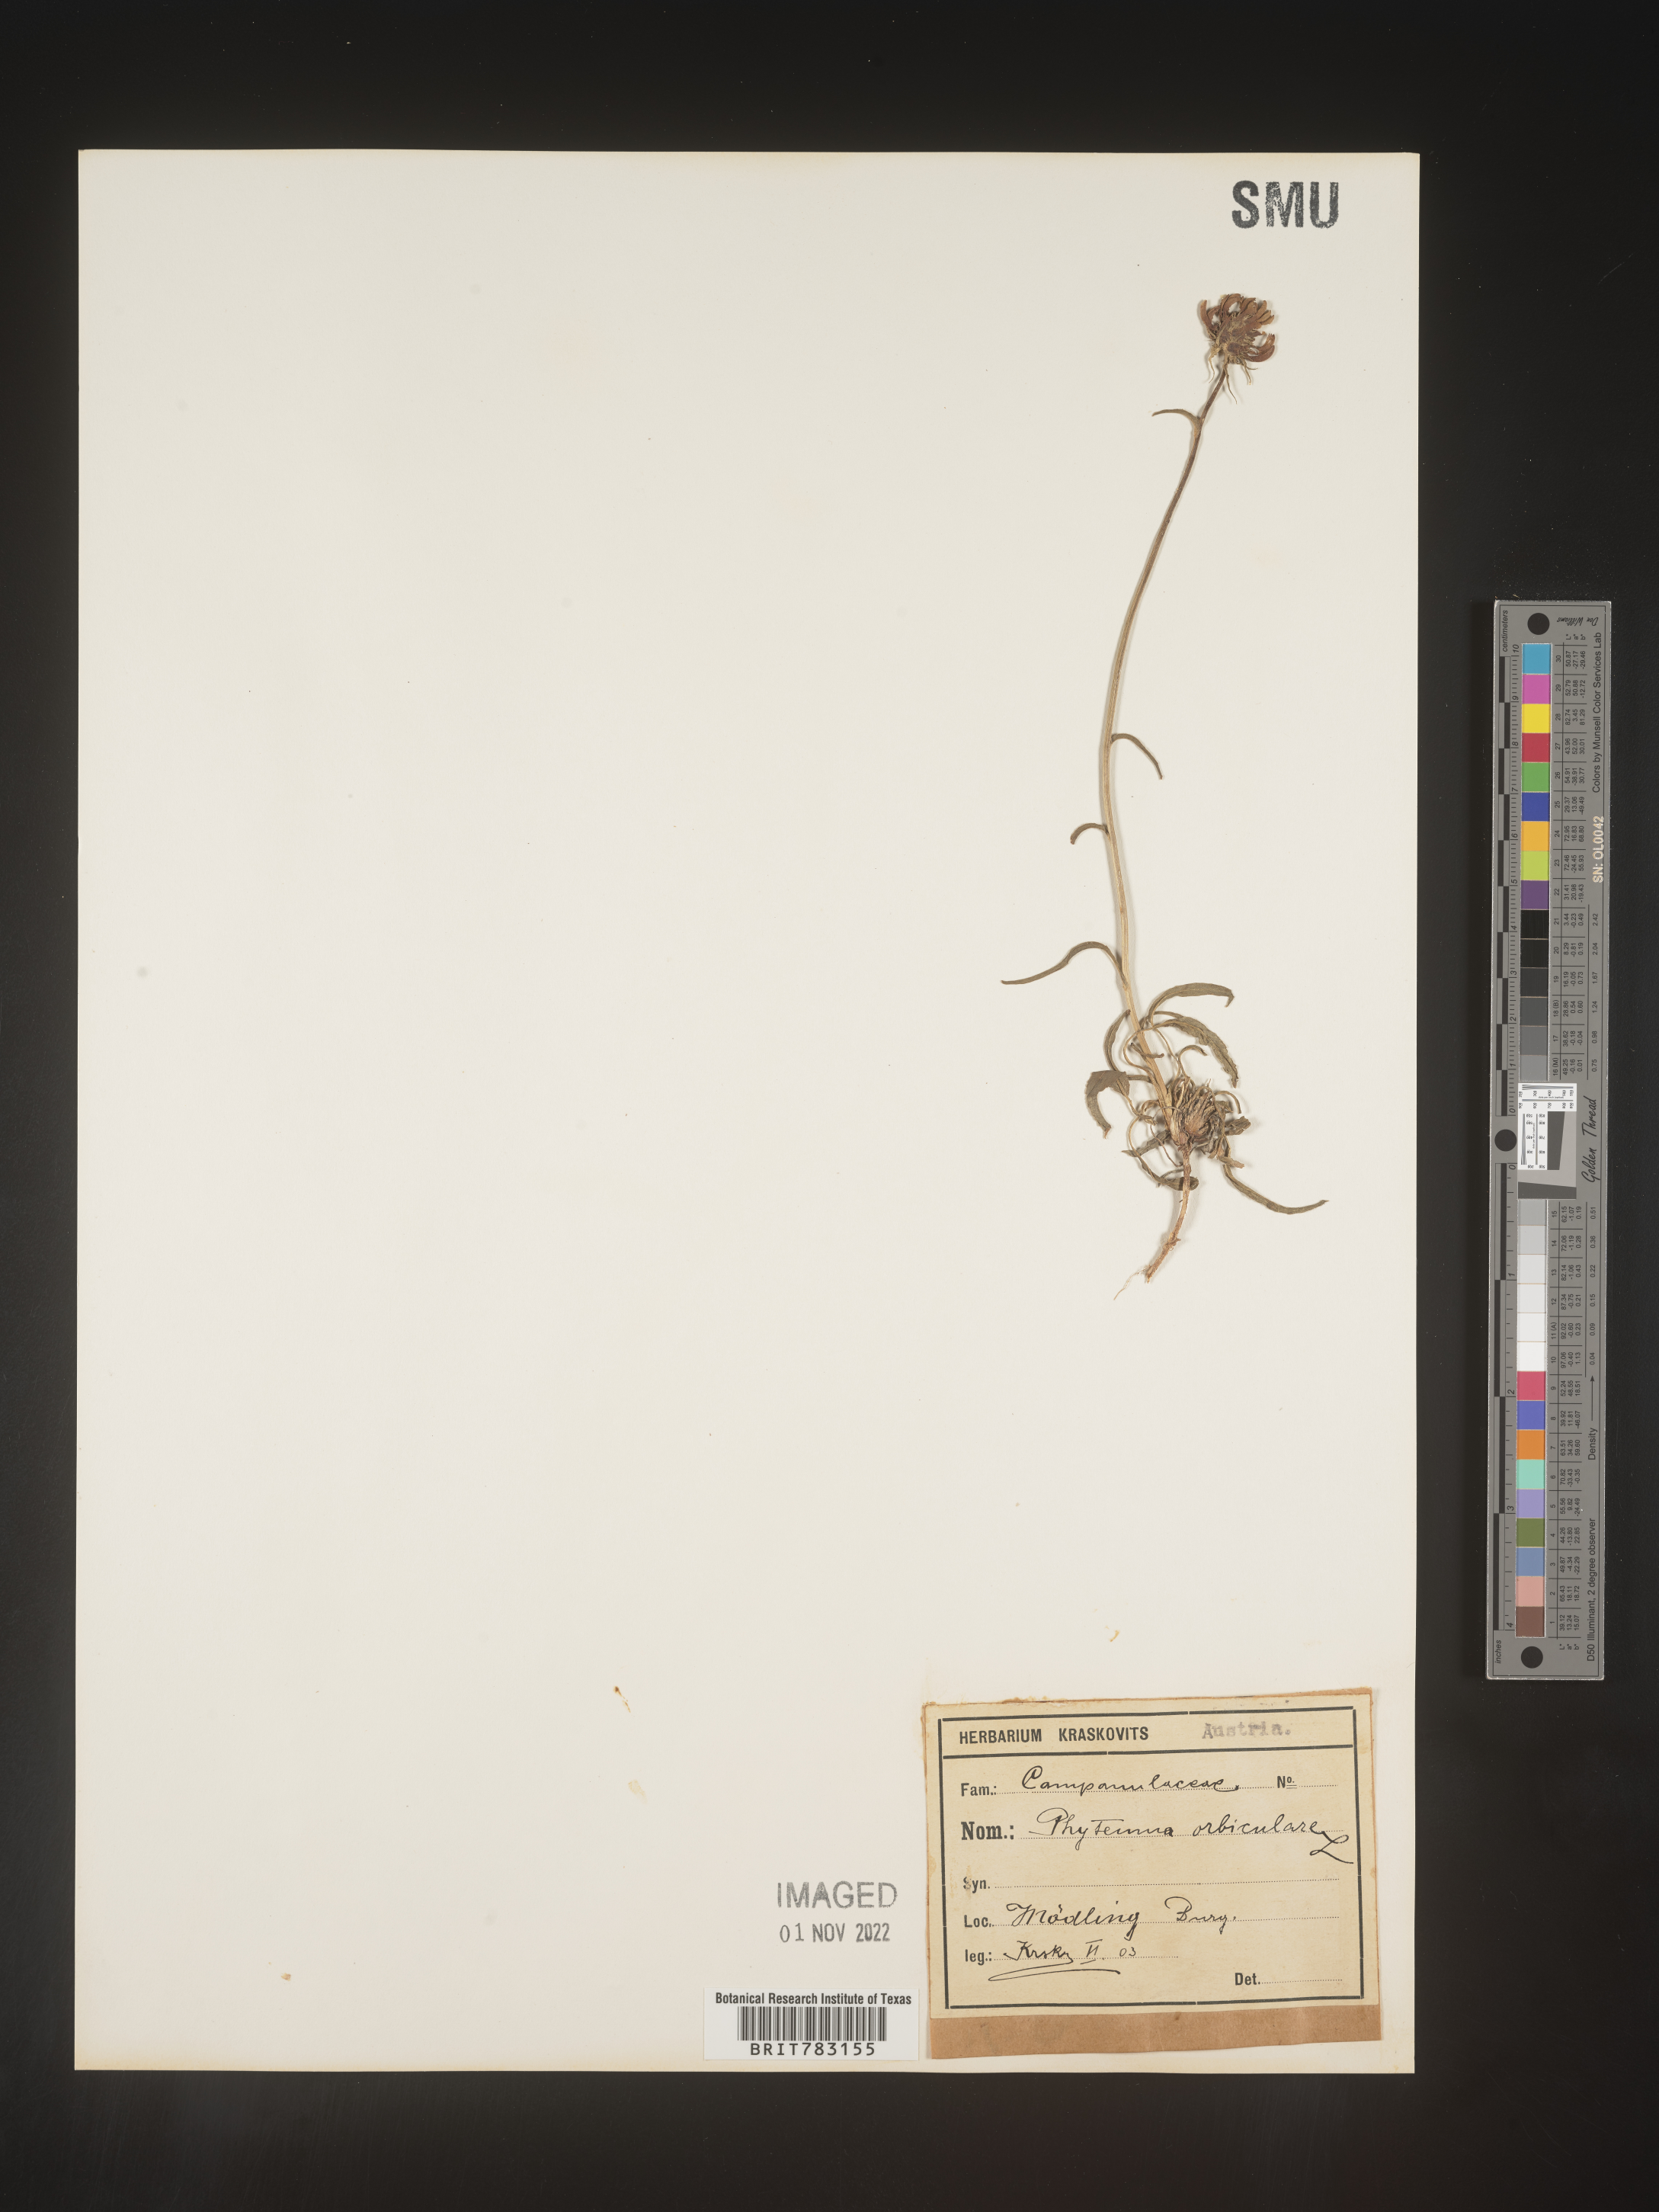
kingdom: Plantae
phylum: Tracheophyta
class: Magnoliopsida
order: Asterales
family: Campanulaceae
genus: Phyteuma
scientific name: Phyteuma
